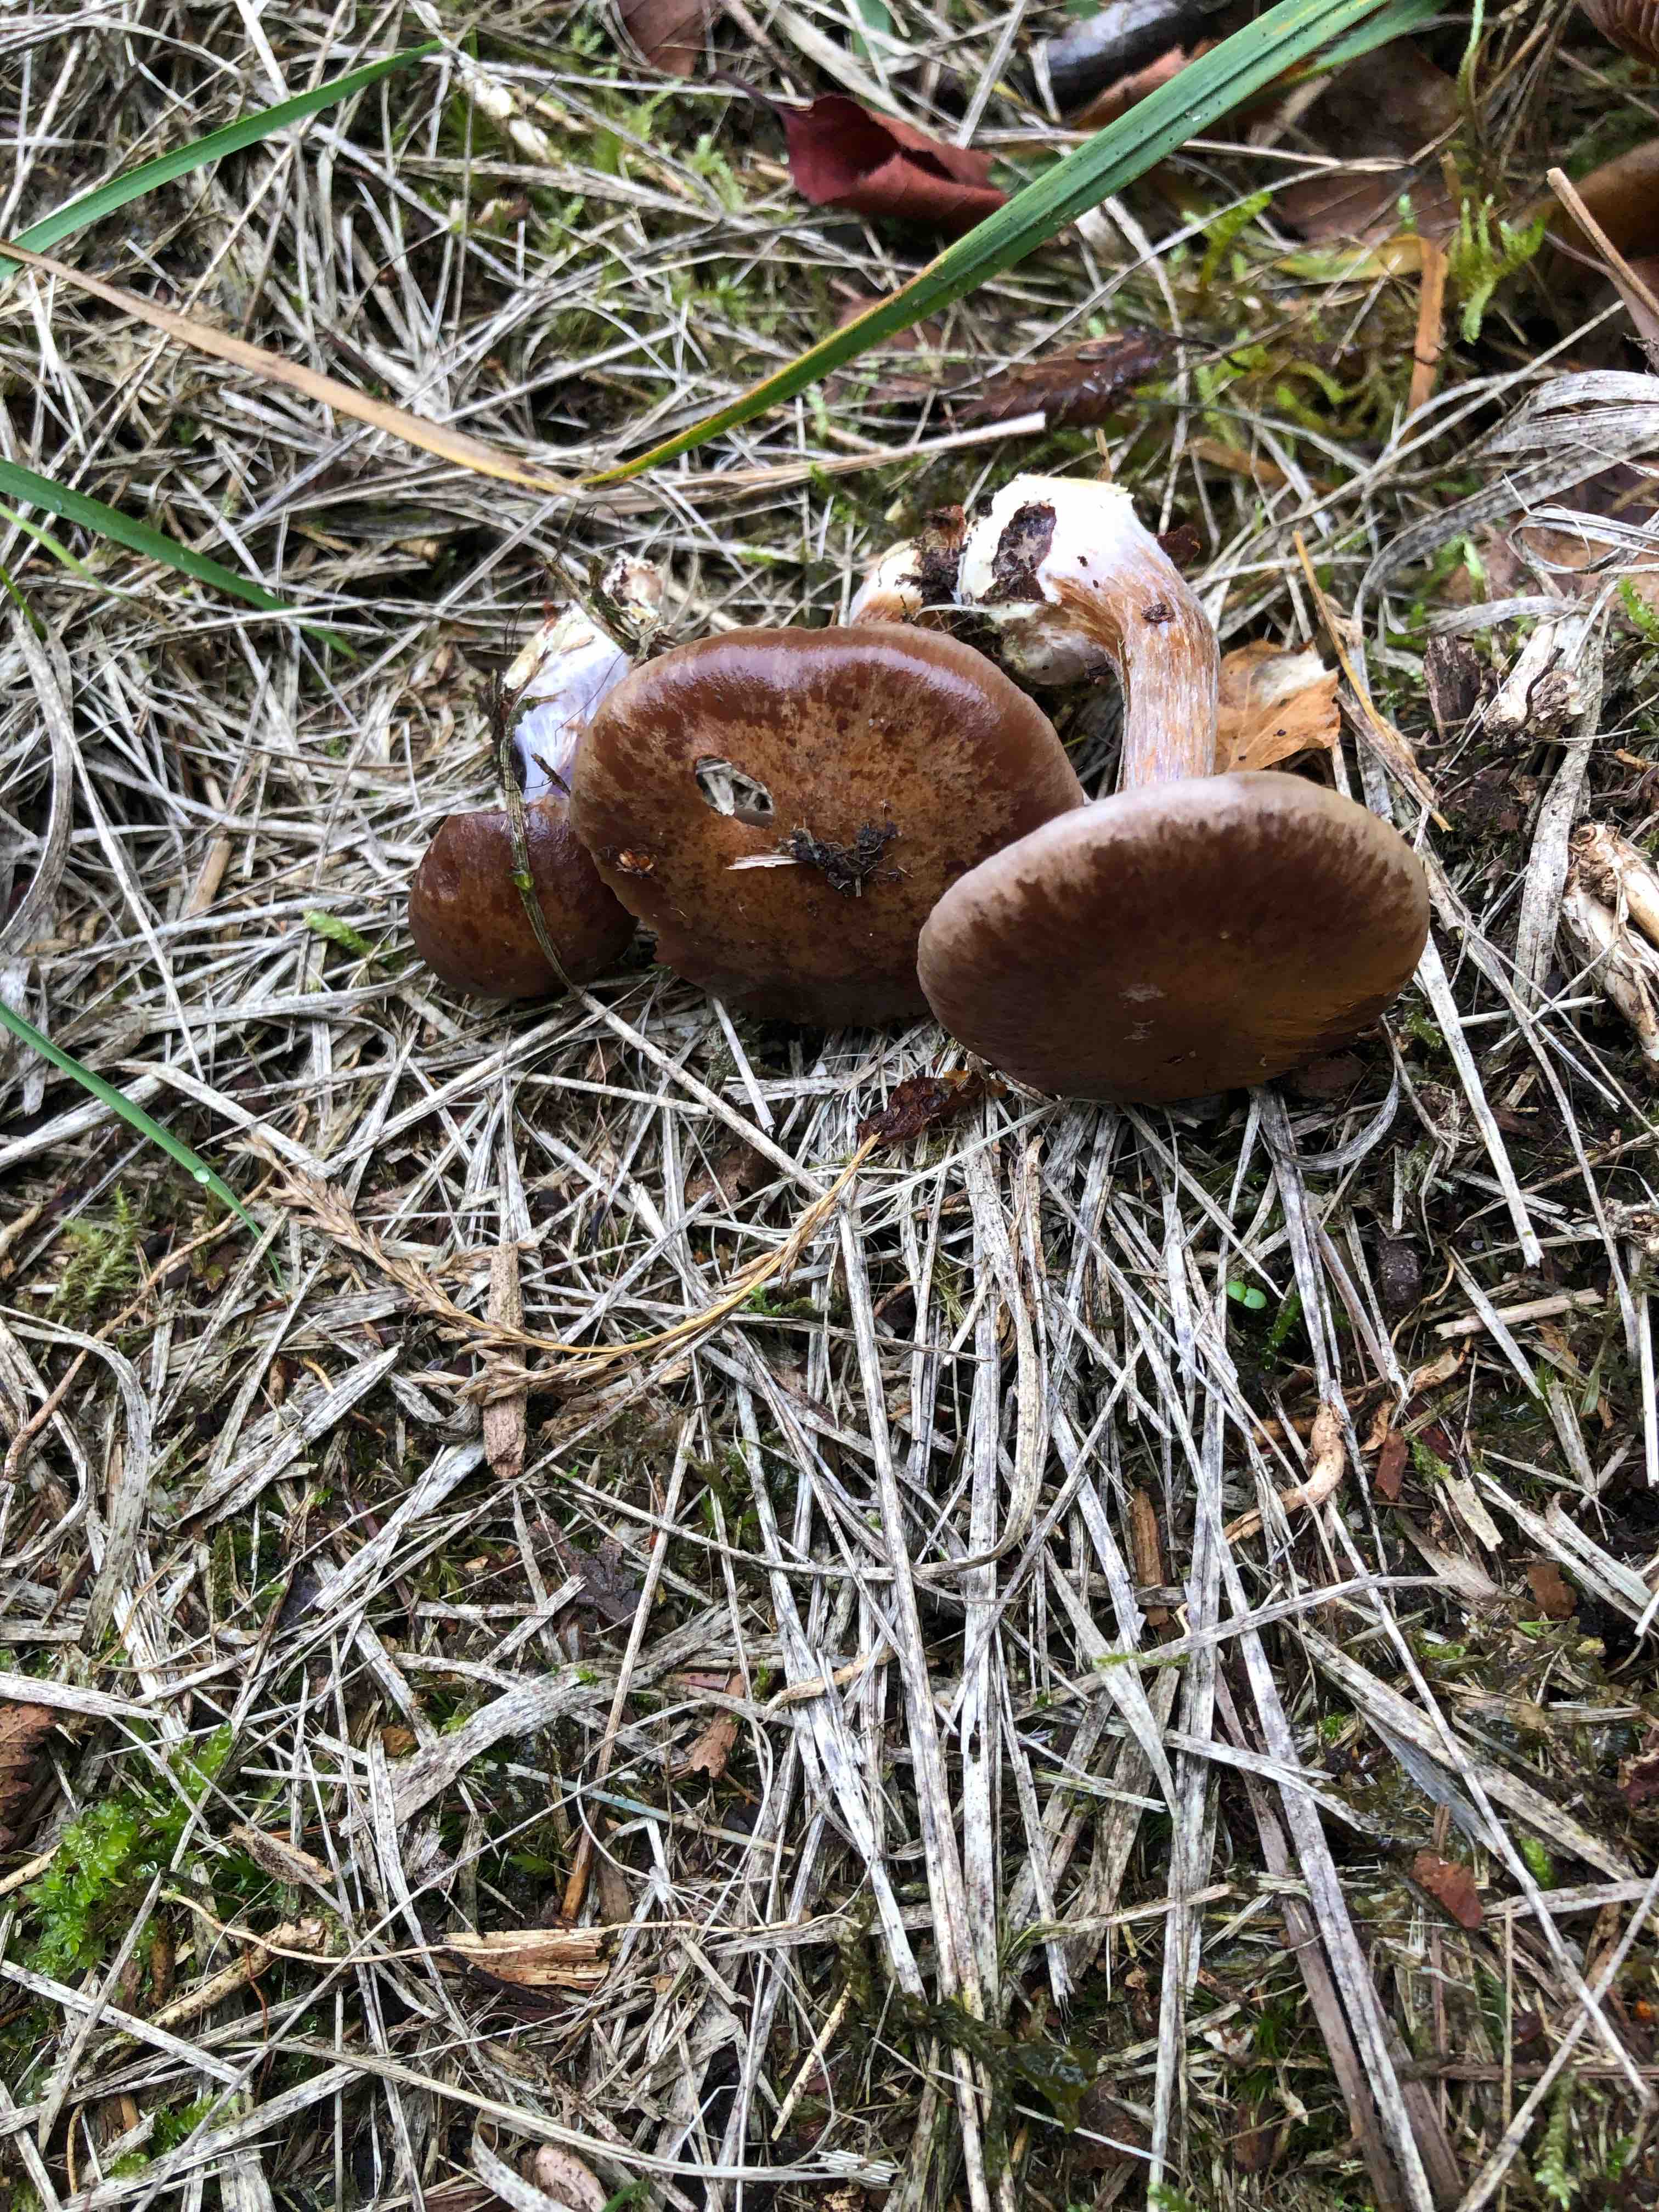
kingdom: Fungi
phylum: Basidiomycota
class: Agaricomycetes
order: Agaricales
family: Cortinariaceae
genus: Thaxterogaster
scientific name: Thaxterogaster scaurus
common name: sump-slørhat
